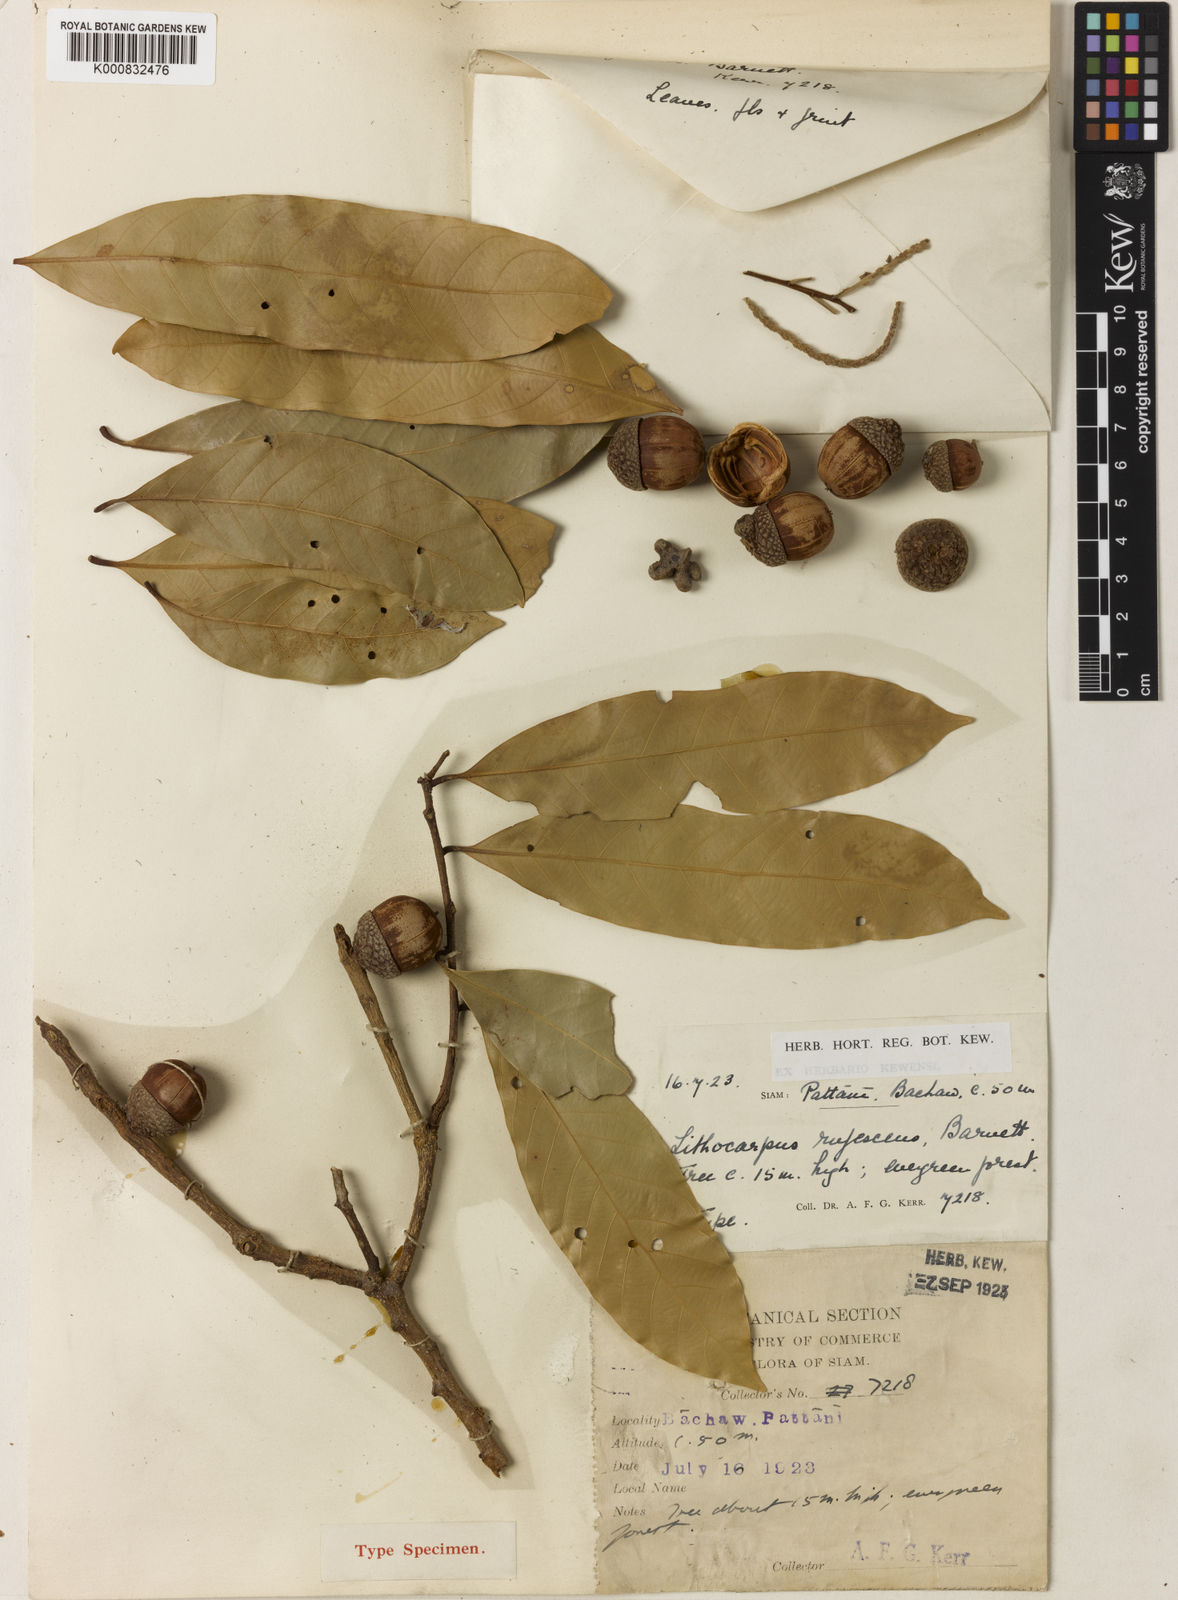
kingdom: Plantae
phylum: Tracheophyta
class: Magnoliopsida
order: Fagales
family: Fagaceae
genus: Lithocarpus
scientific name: Lithocarpus rufescens
